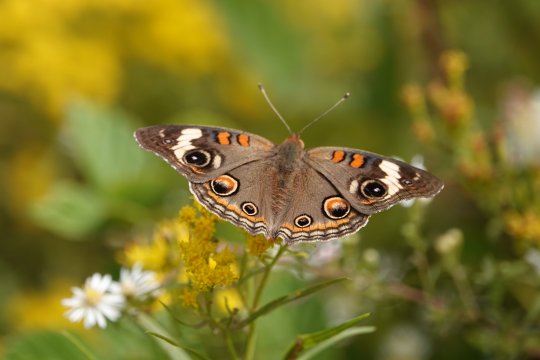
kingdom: Animalia
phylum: Arthropoda
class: Insecta
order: Lepidoptera
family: Nymphalidae
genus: Junonia
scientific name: Junonia coenia
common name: Common Buckeye
